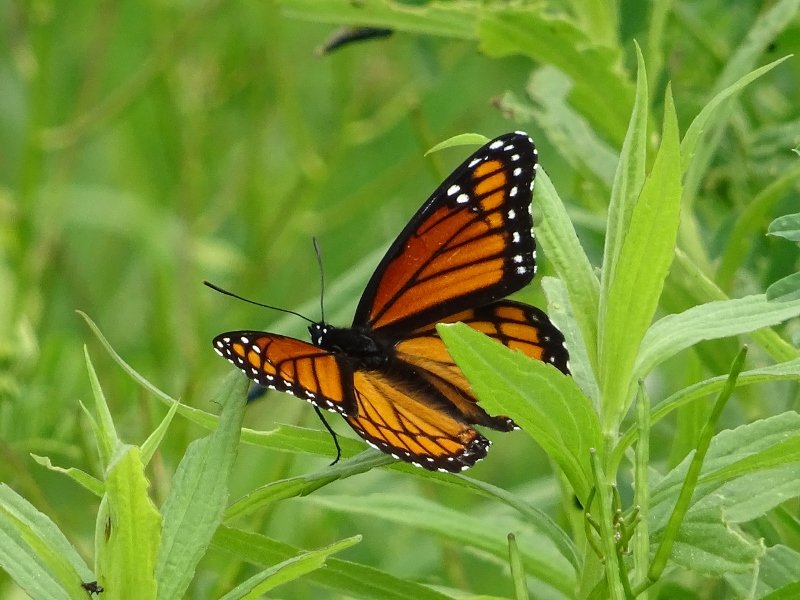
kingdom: Animalia
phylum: Arthropoda
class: Insecta
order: Lepidoptera
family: Nymphalidae
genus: Limenitis
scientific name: Limenitis archippus
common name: Viceroy
